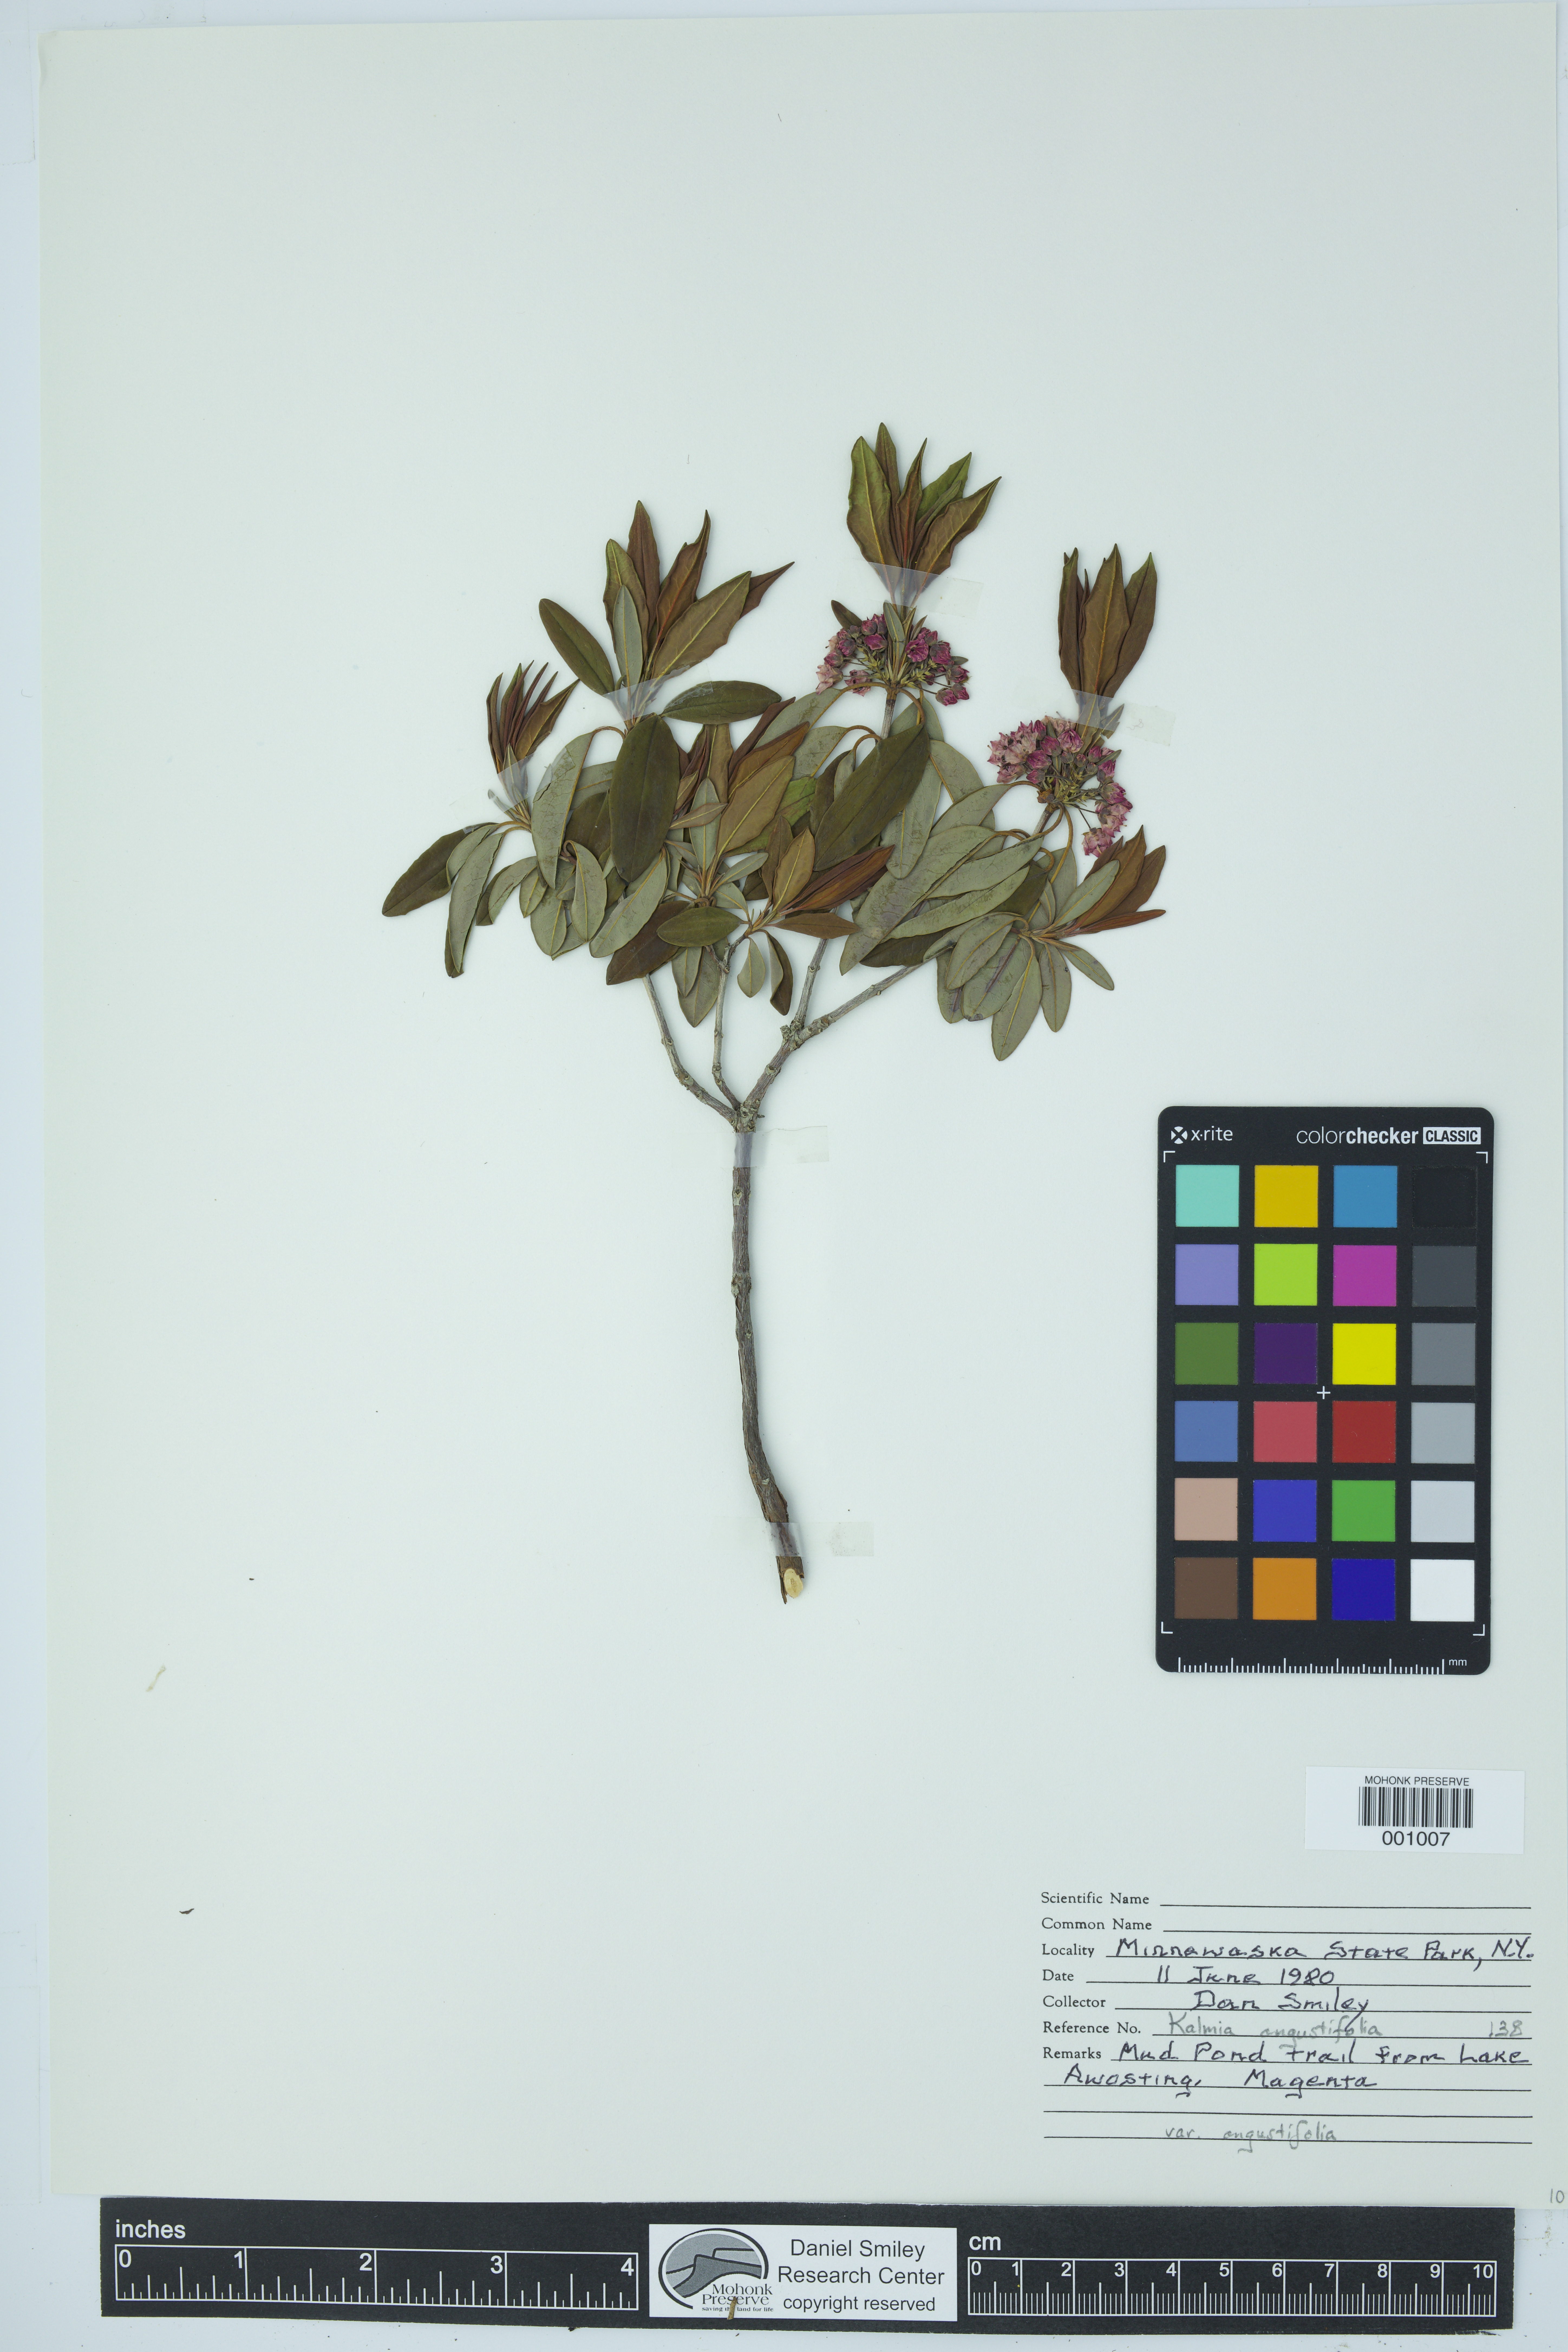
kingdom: Plantae
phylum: Tracheophyta
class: Magnoliopsida
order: Ericales
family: Ericaceae
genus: Kalmia
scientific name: Kalmia angustifolia
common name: Sheep-laurel
